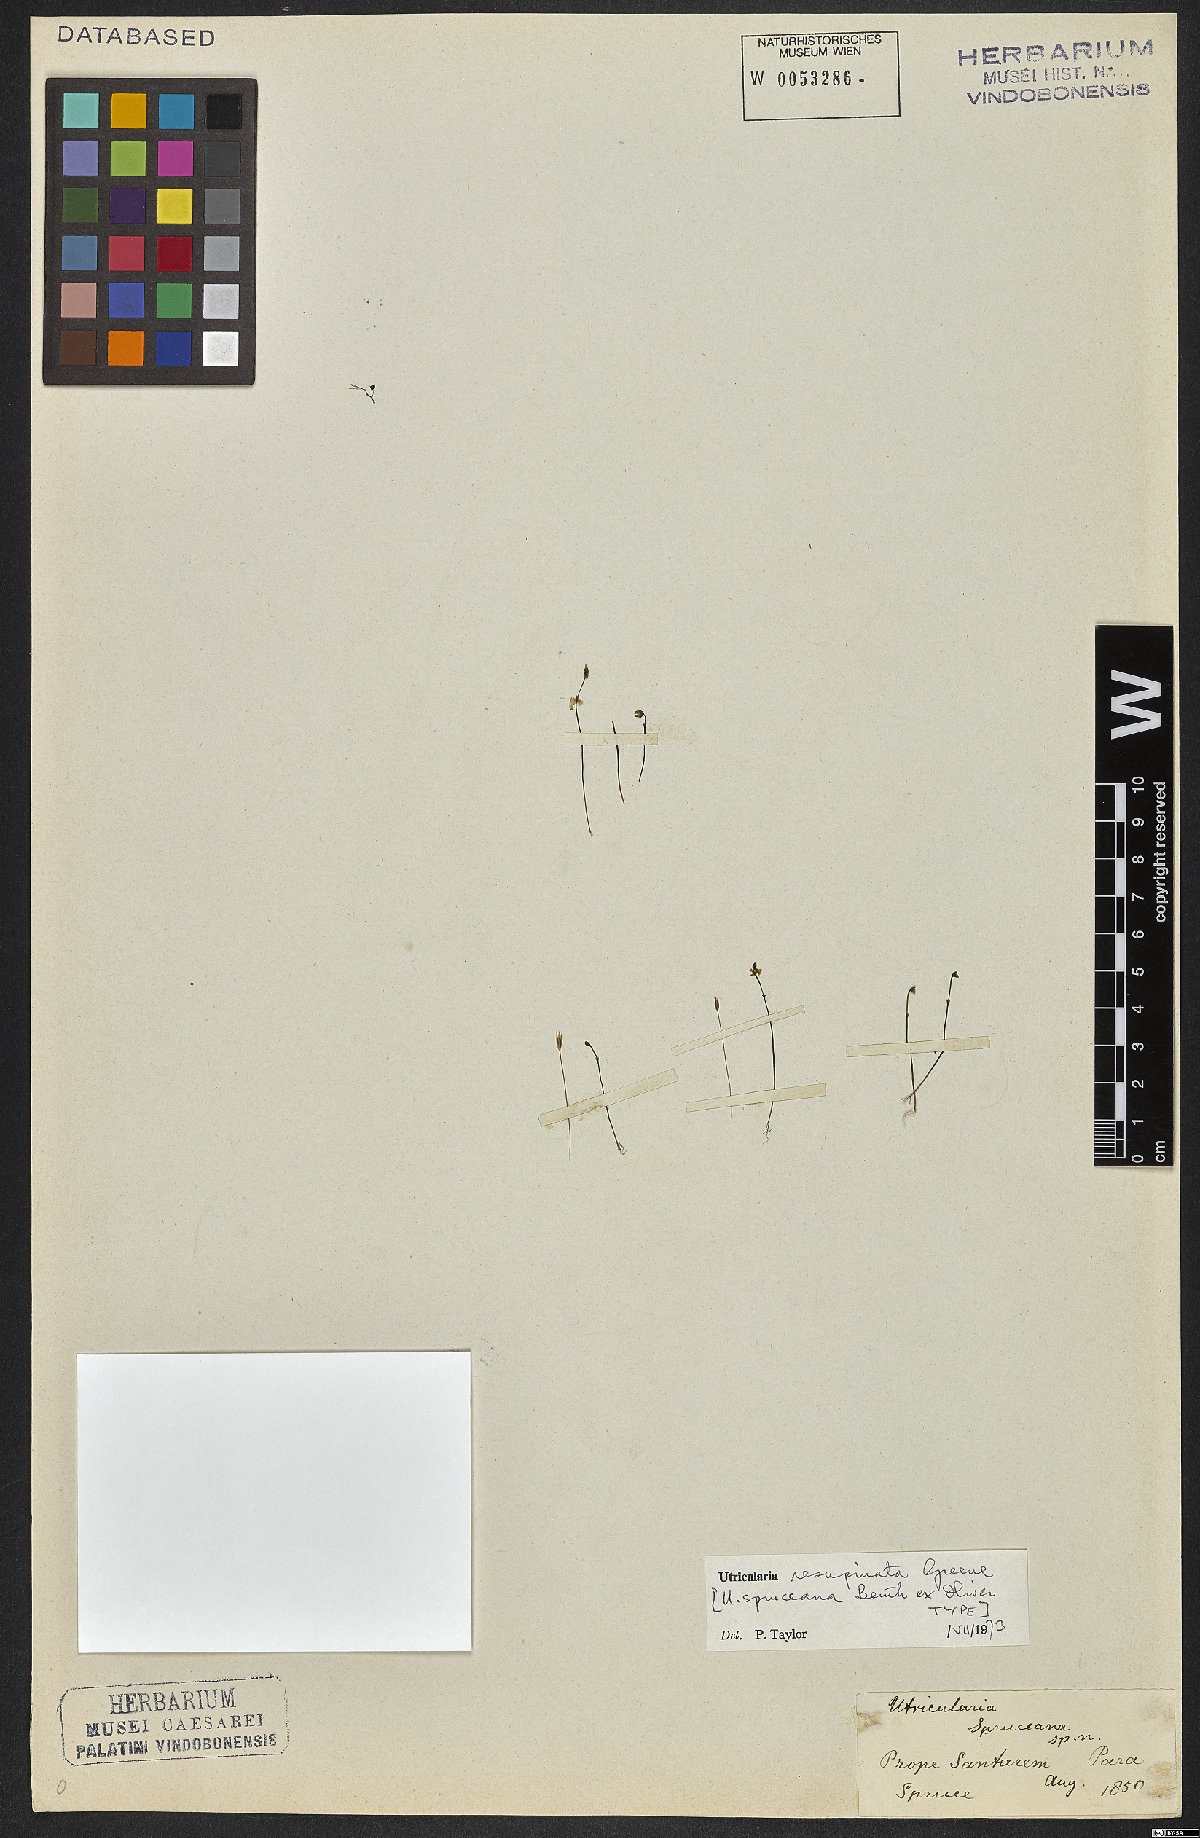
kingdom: Plantae
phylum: Tracheophyta
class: Magnoliopsida
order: Lamiales
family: Lentibulariaceae
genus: Utricularia
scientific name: Utricularia resupinata
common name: Northeastern bladderwort
